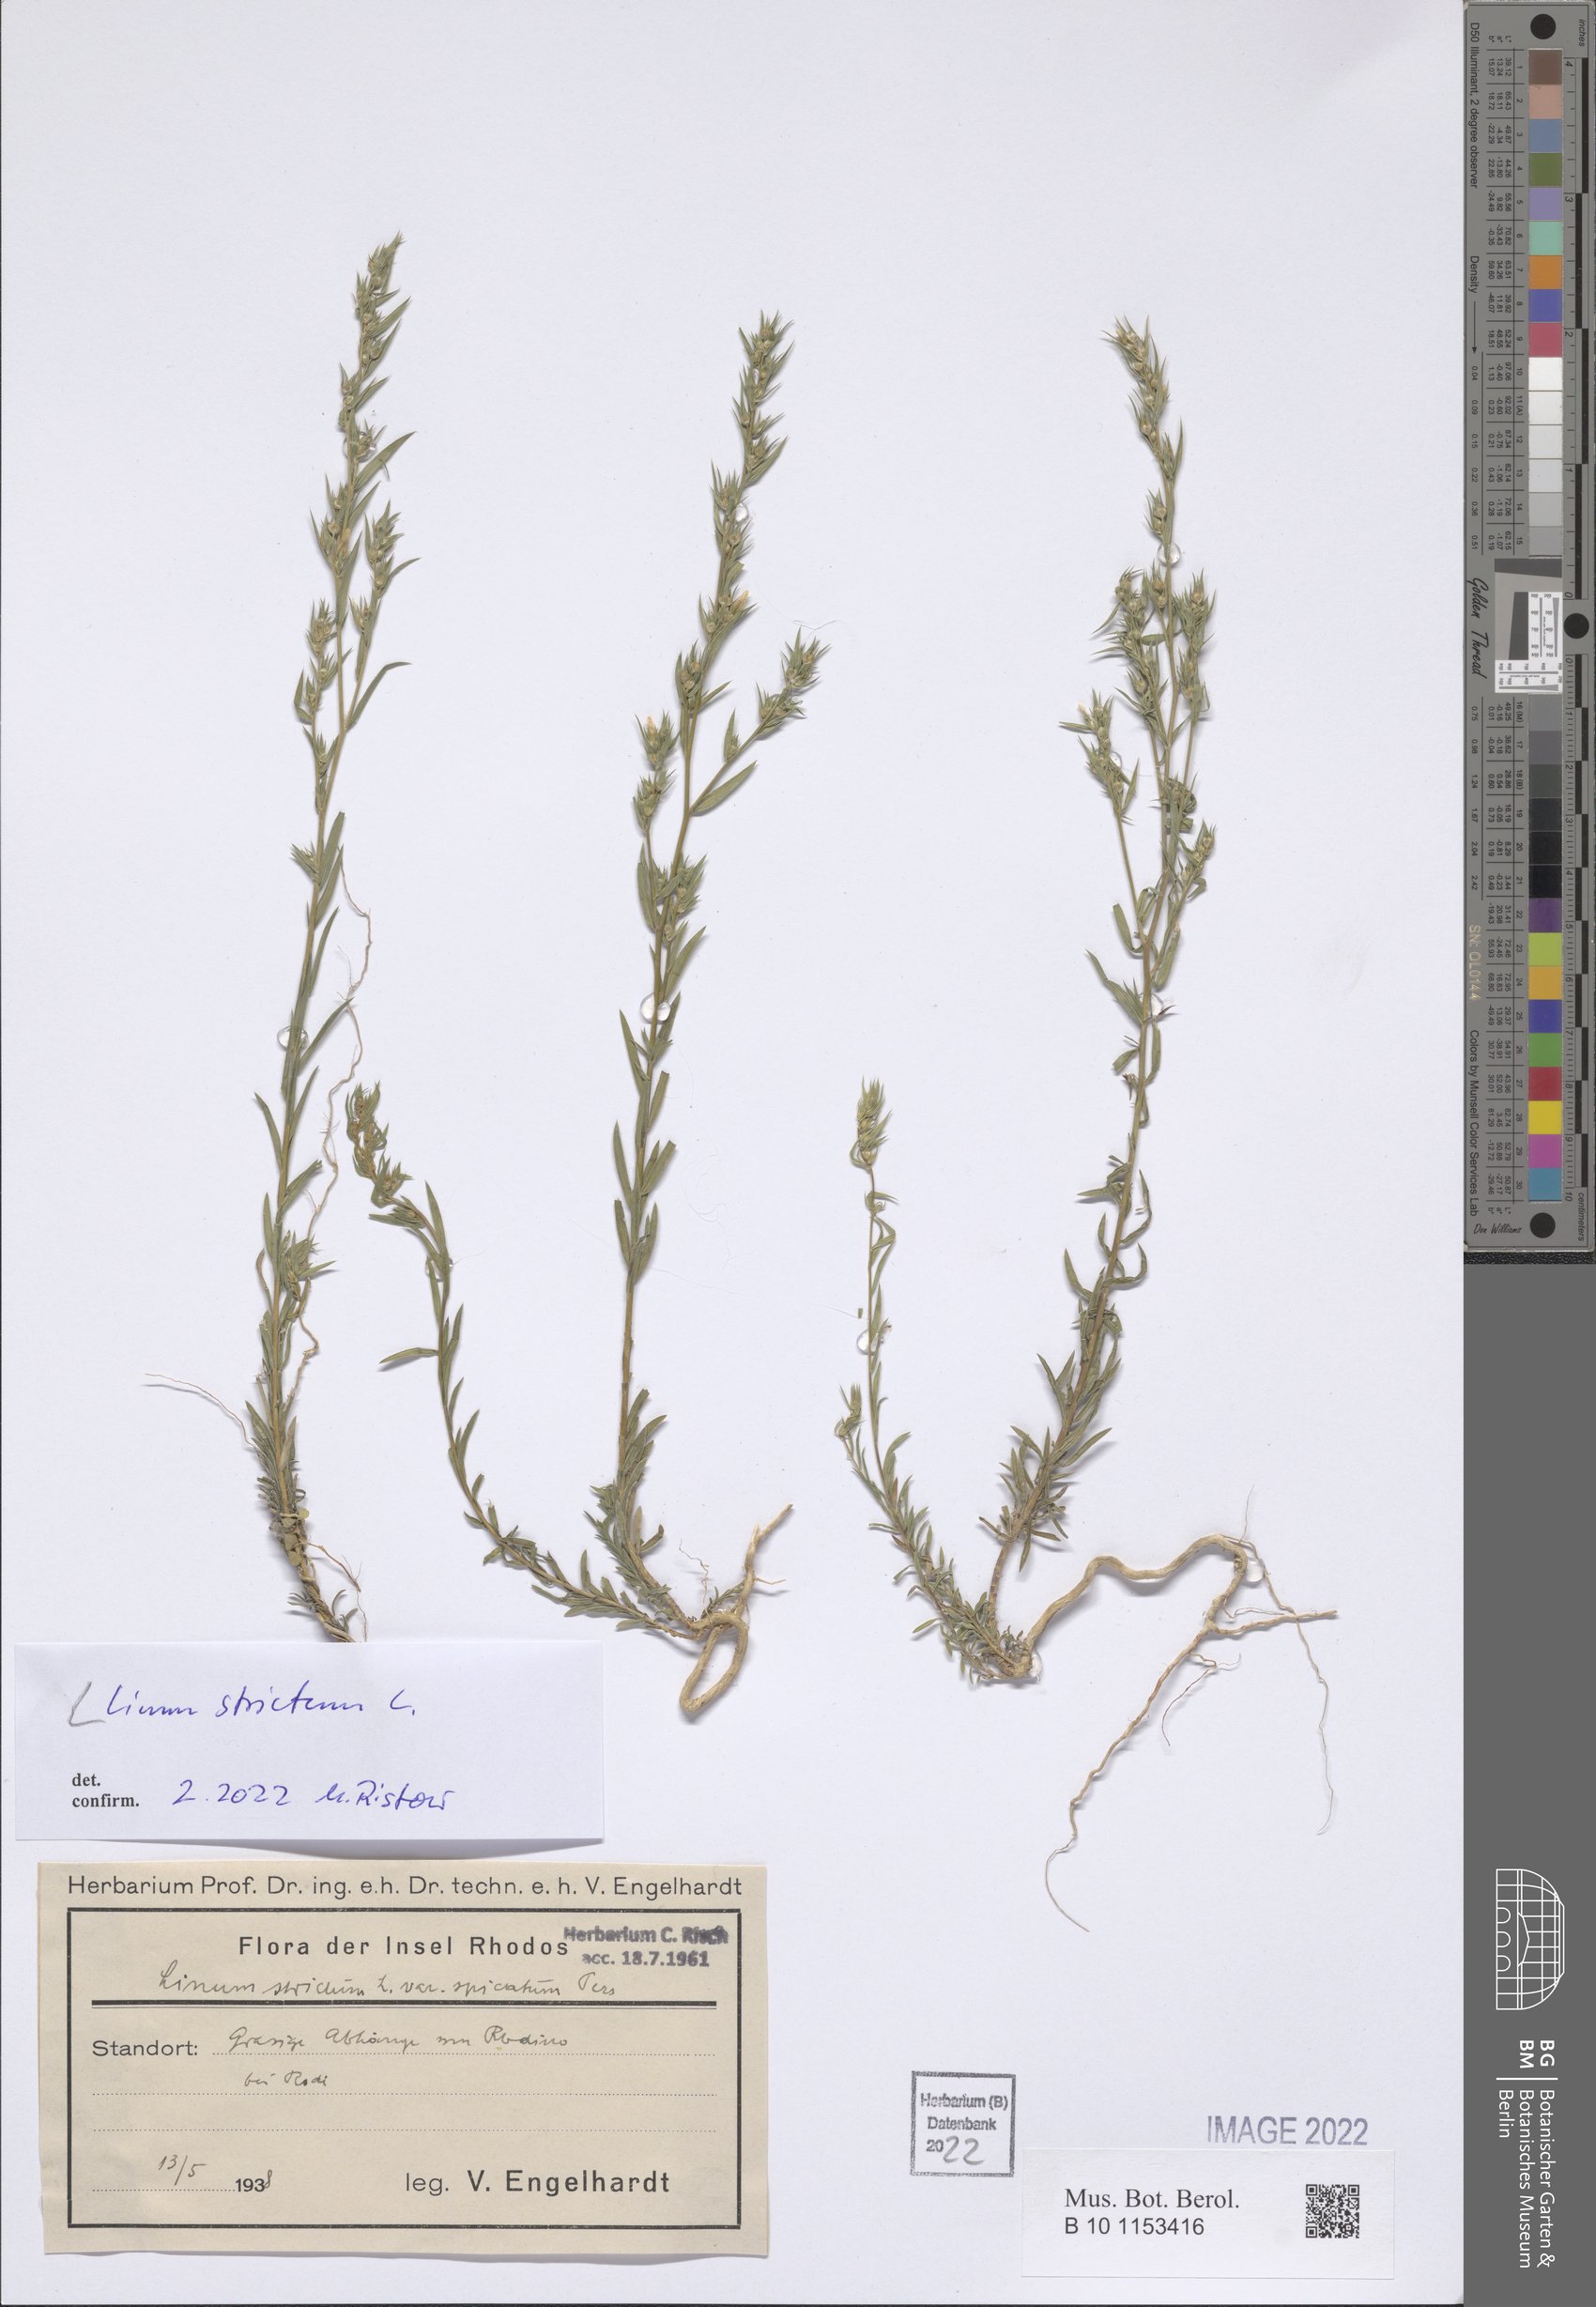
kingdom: Plantae
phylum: Tracheophyta
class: Magnoliopsida
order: Malpighiales
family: Linaceae
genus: Linum
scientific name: Linum strictum
